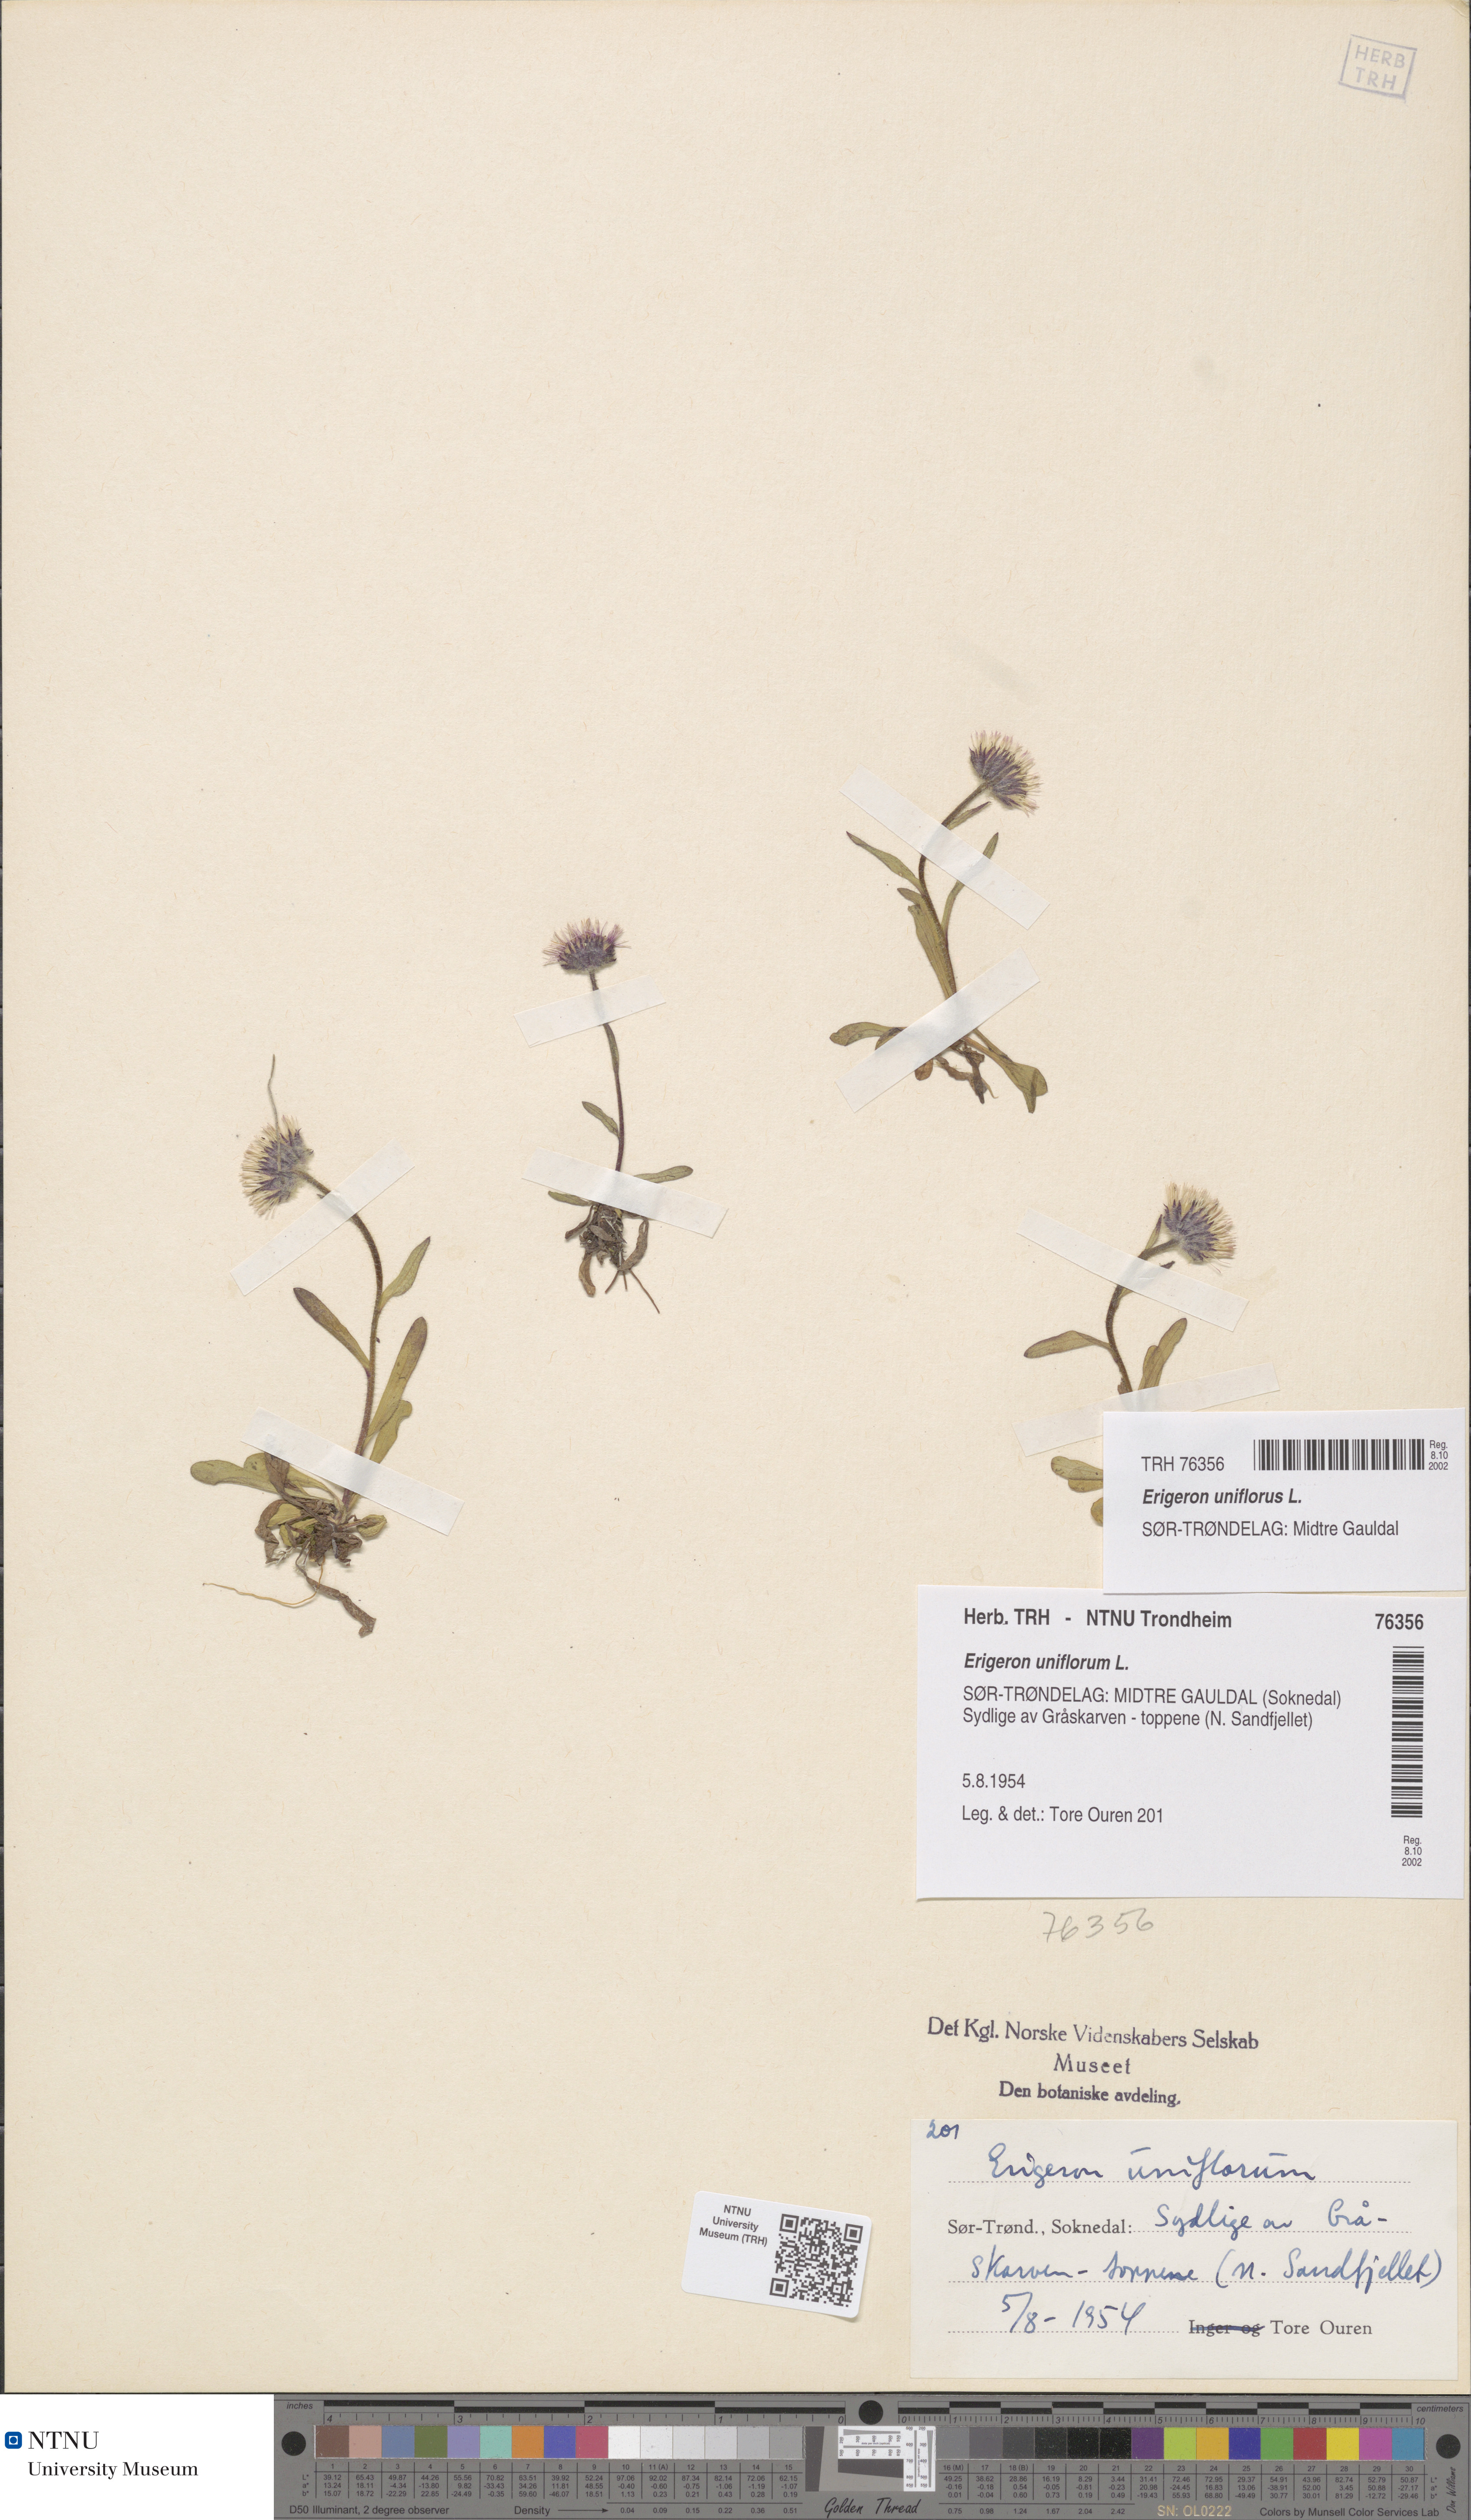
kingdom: Plantae
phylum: Tracheophyta
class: Magnoliopsida
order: Asterales
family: Asteraceae
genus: Erigeron
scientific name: Erigeron uniflorus
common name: Northern daisy
